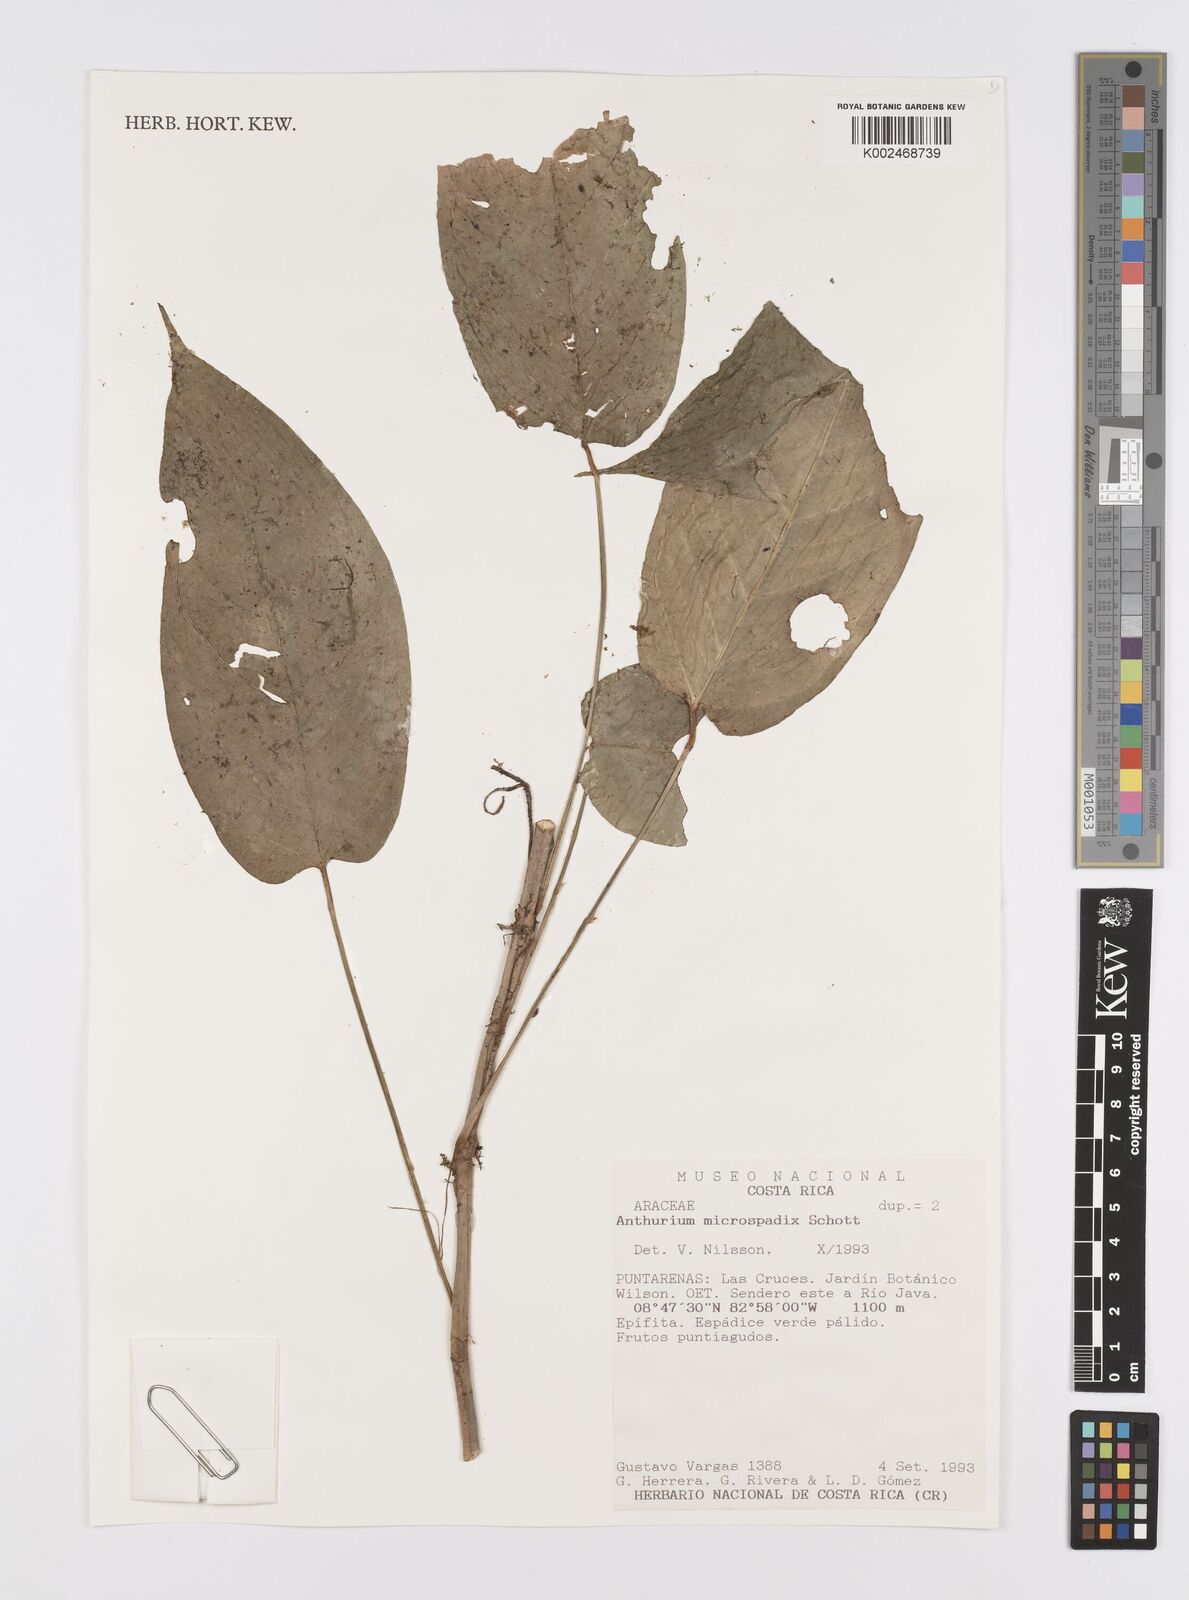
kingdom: Plantae
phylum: Tracheophyta
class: Liliopsida
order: Alismatales
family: Araceae
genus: Anthurium
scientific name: Anthurium microspadix
